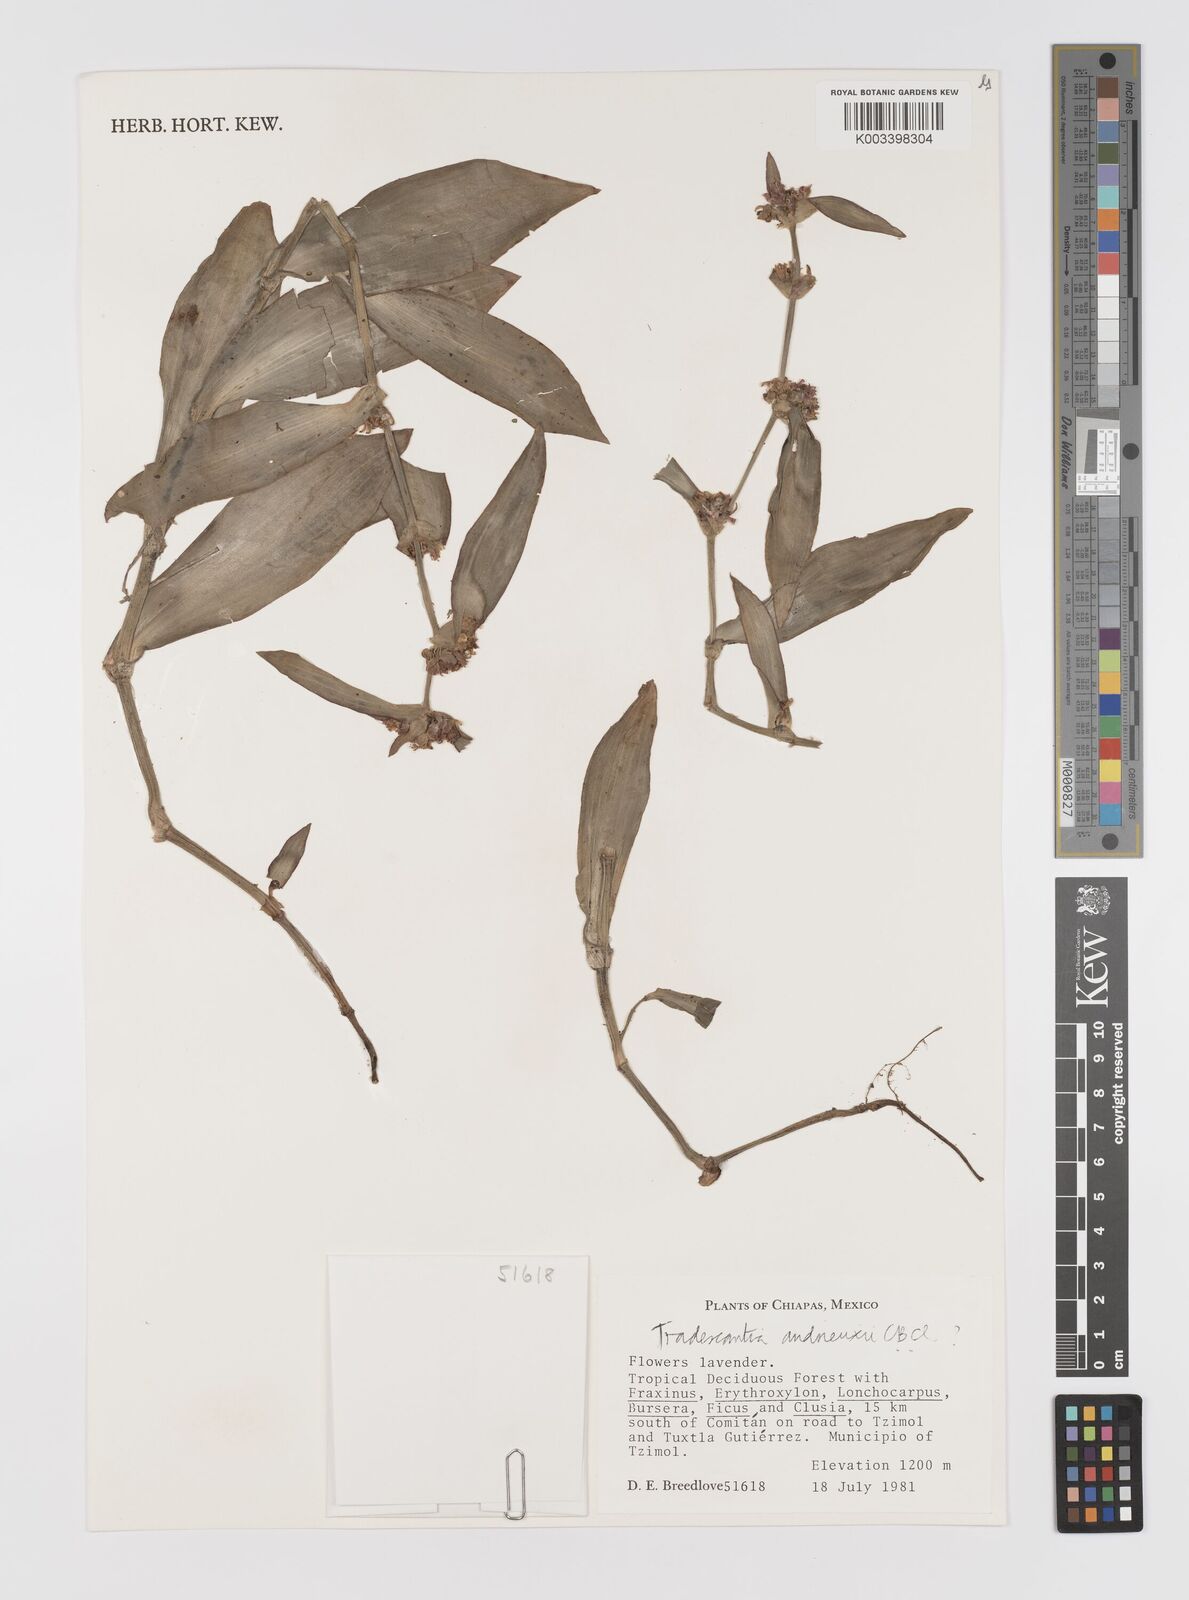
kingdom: Plantae
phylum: Tracheophyta
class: Liliopsida
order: Commelinales
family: Commelinaceae
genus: Tradescantia
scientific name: Tradescantia andrieuxii
